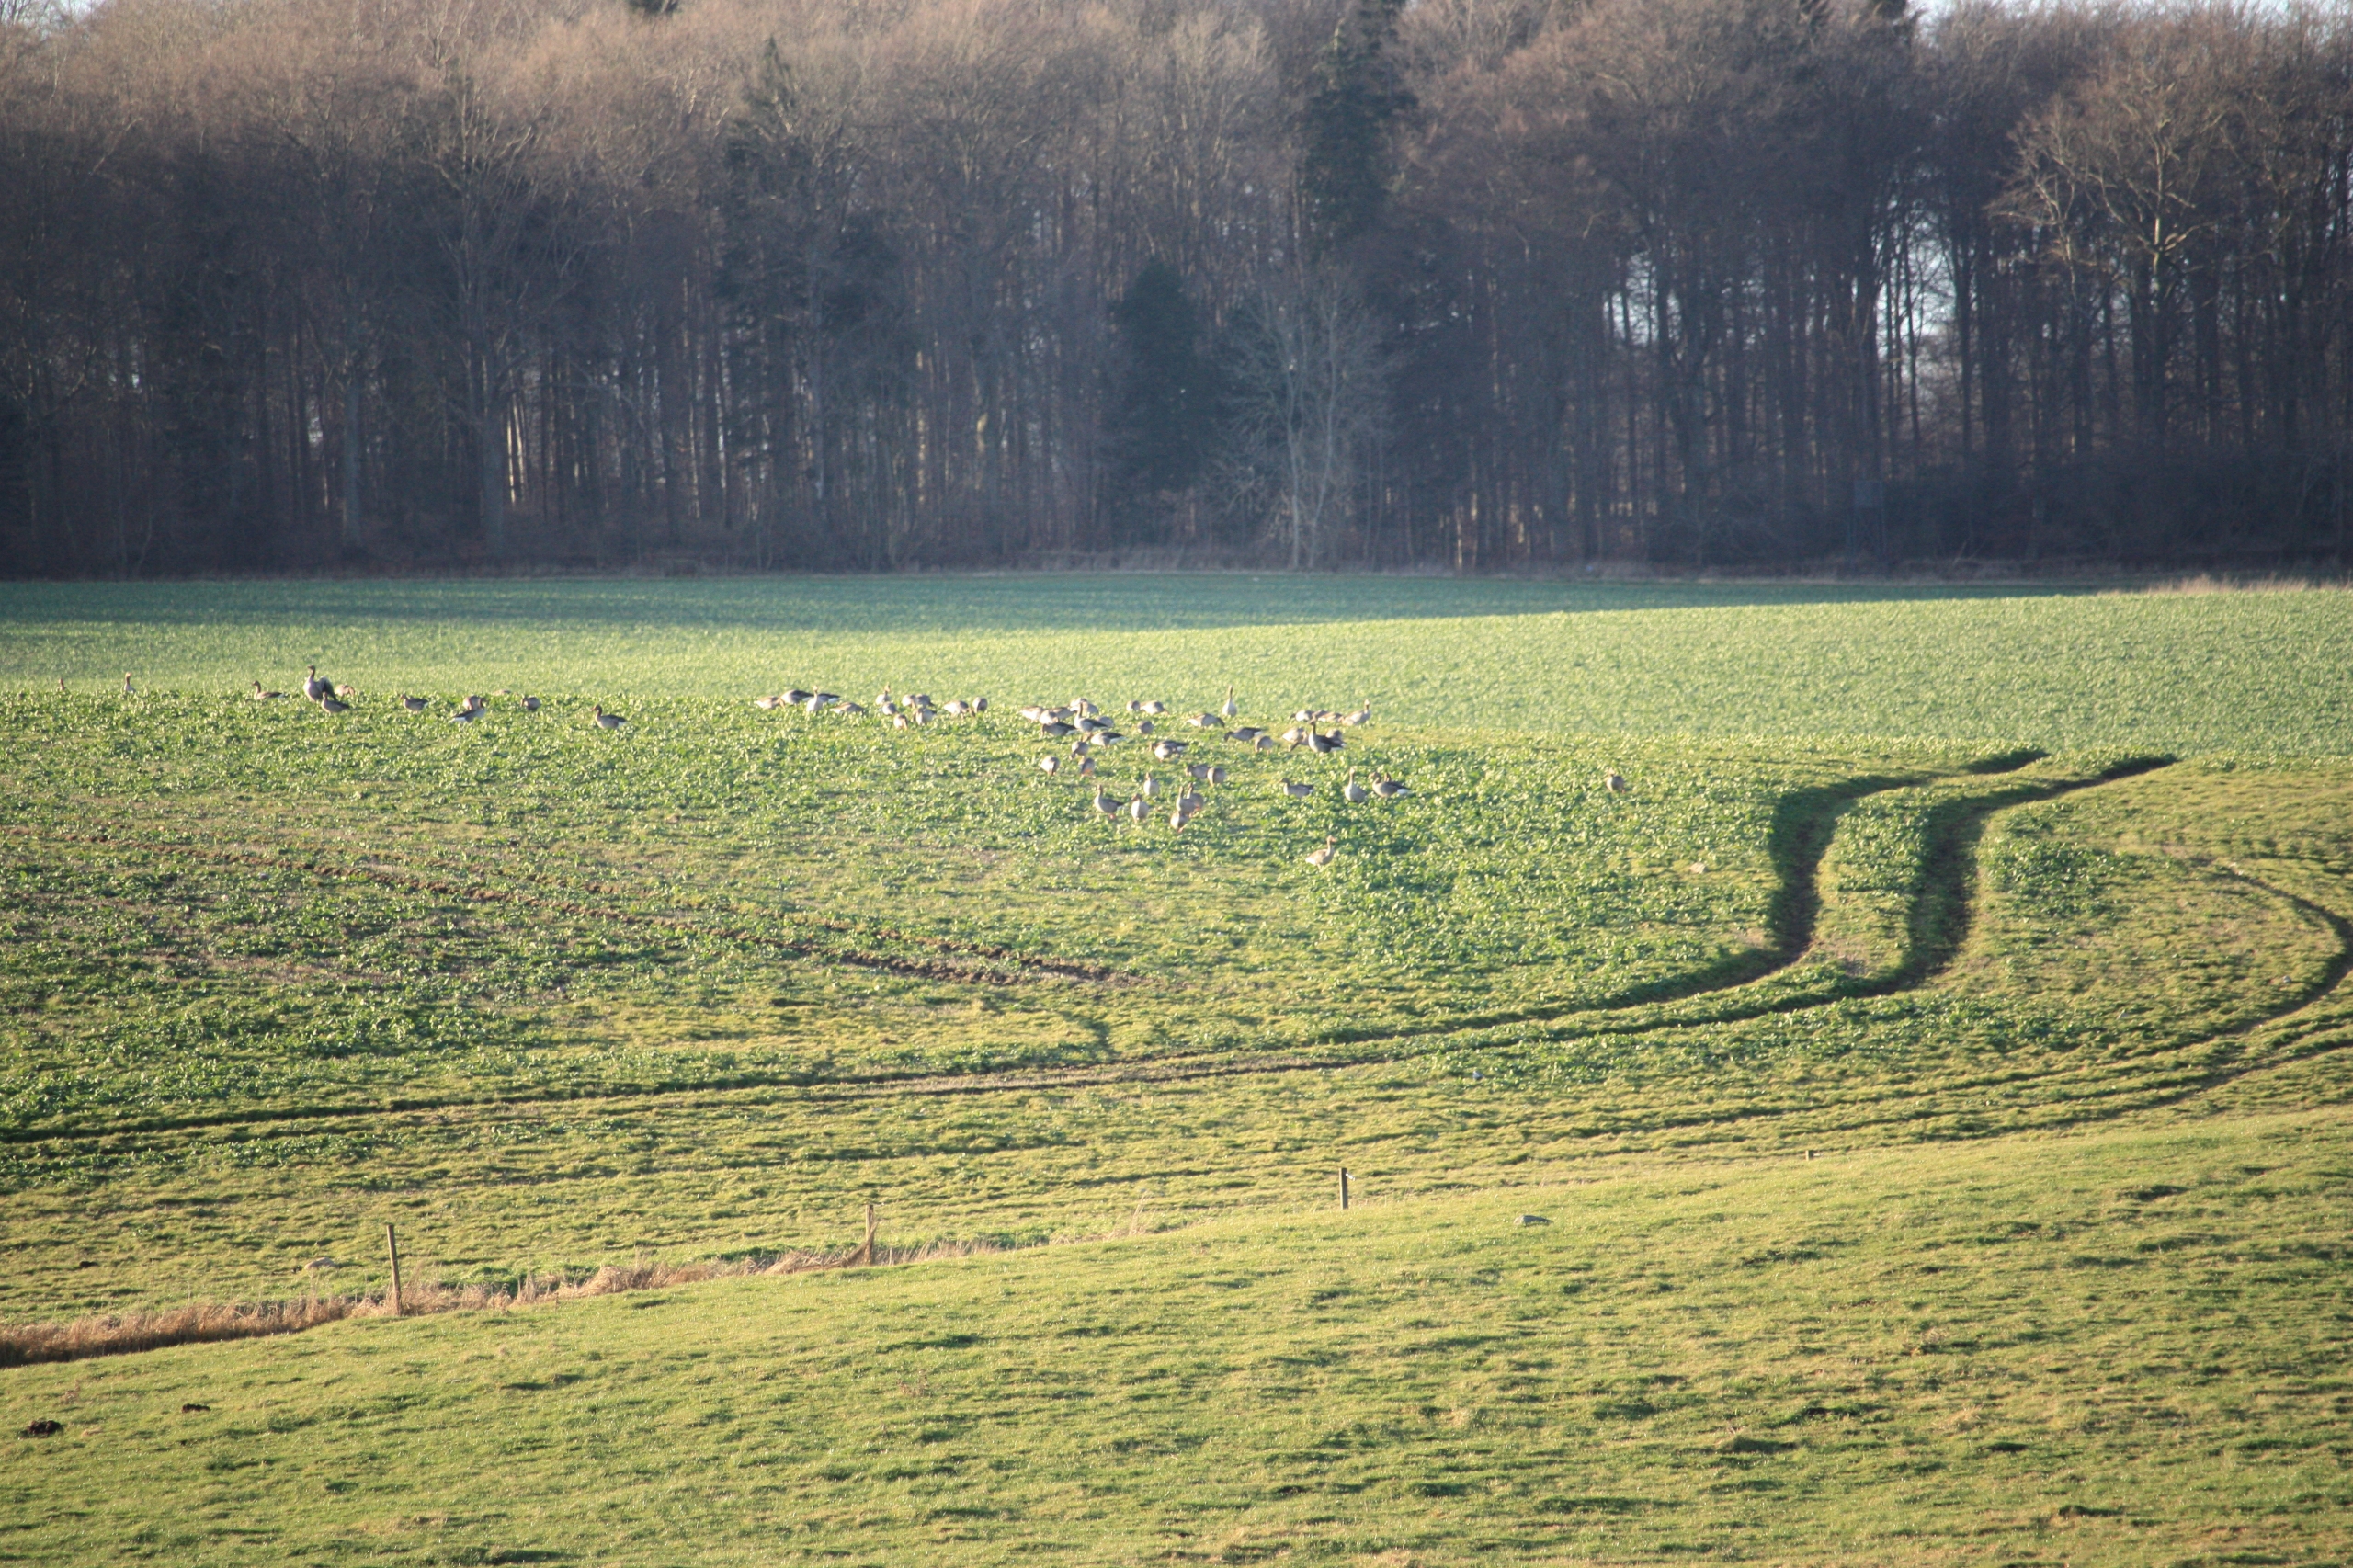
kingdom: Animalia
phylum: Chordata
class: Aves
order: Anseriformes
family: Anatidae
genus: Anser
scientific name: Anser anser
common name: Grågås
